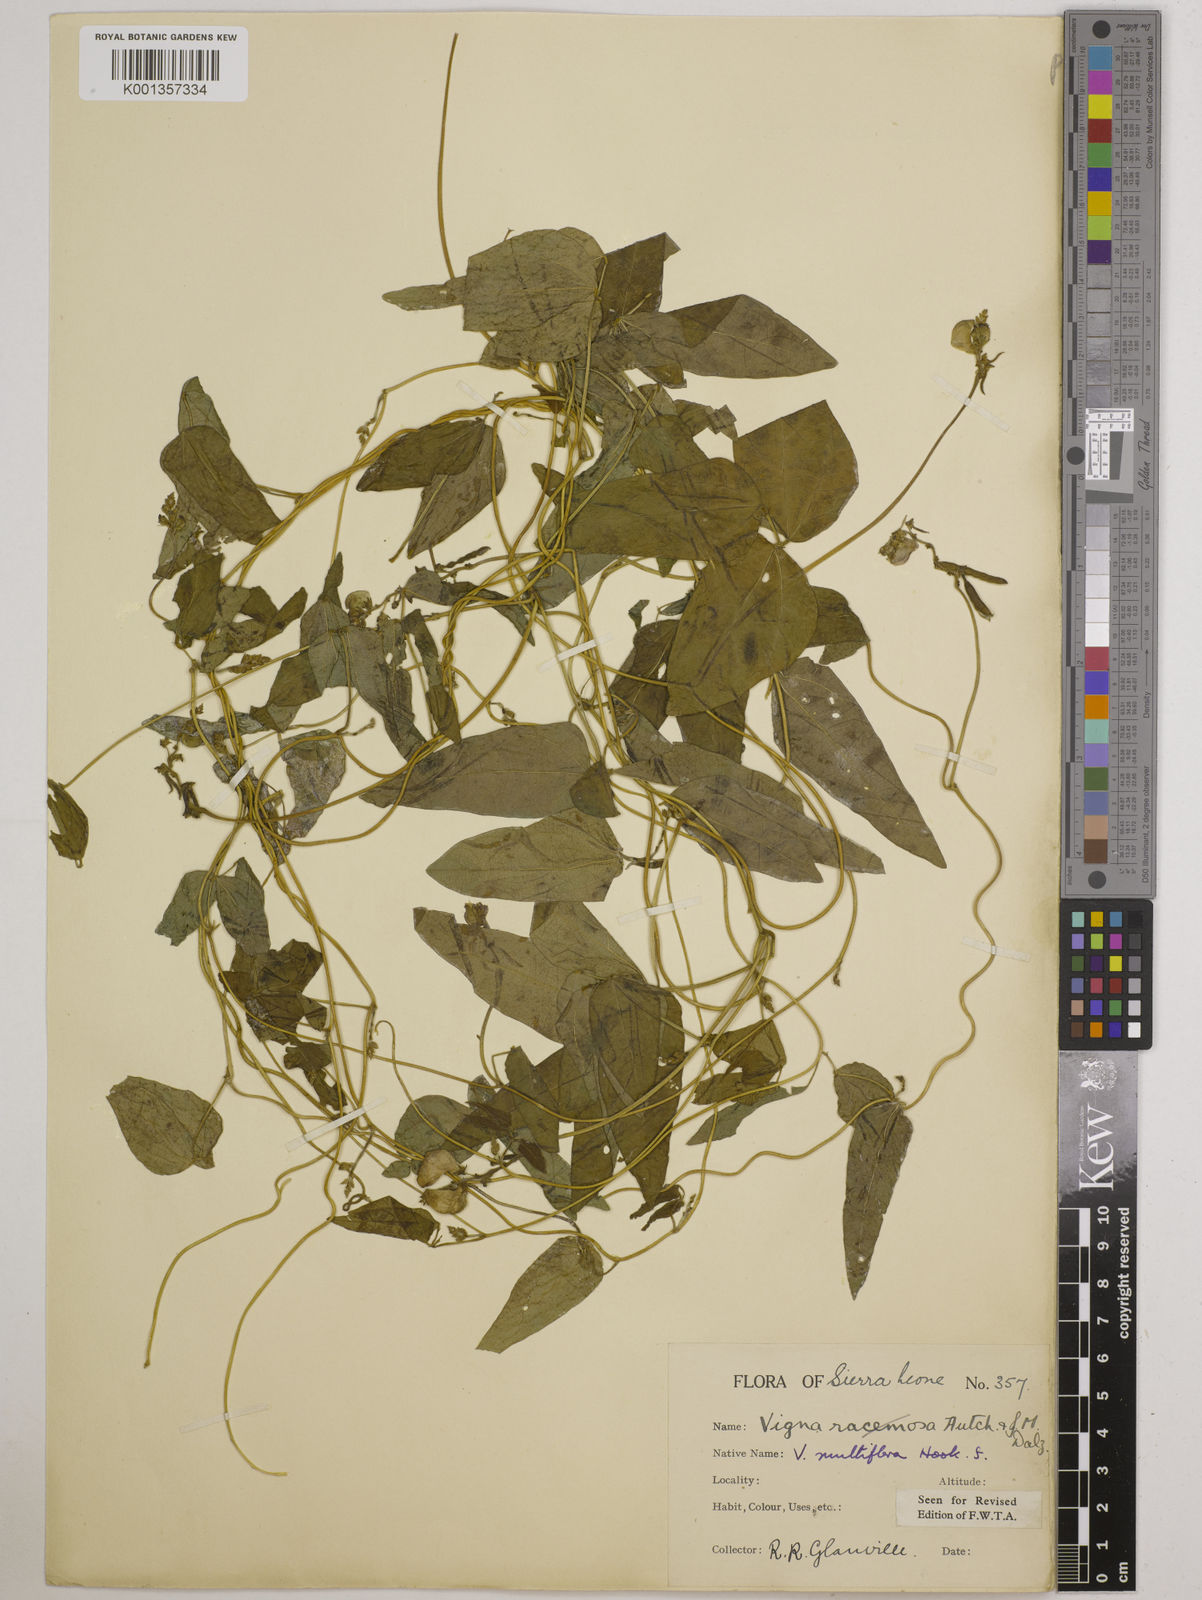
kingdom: Plantae
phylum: Tracheophyta
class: Magnoliopsida
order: Fabales
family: Fabaceae
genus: Vigna
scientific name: Vigna gracilis
